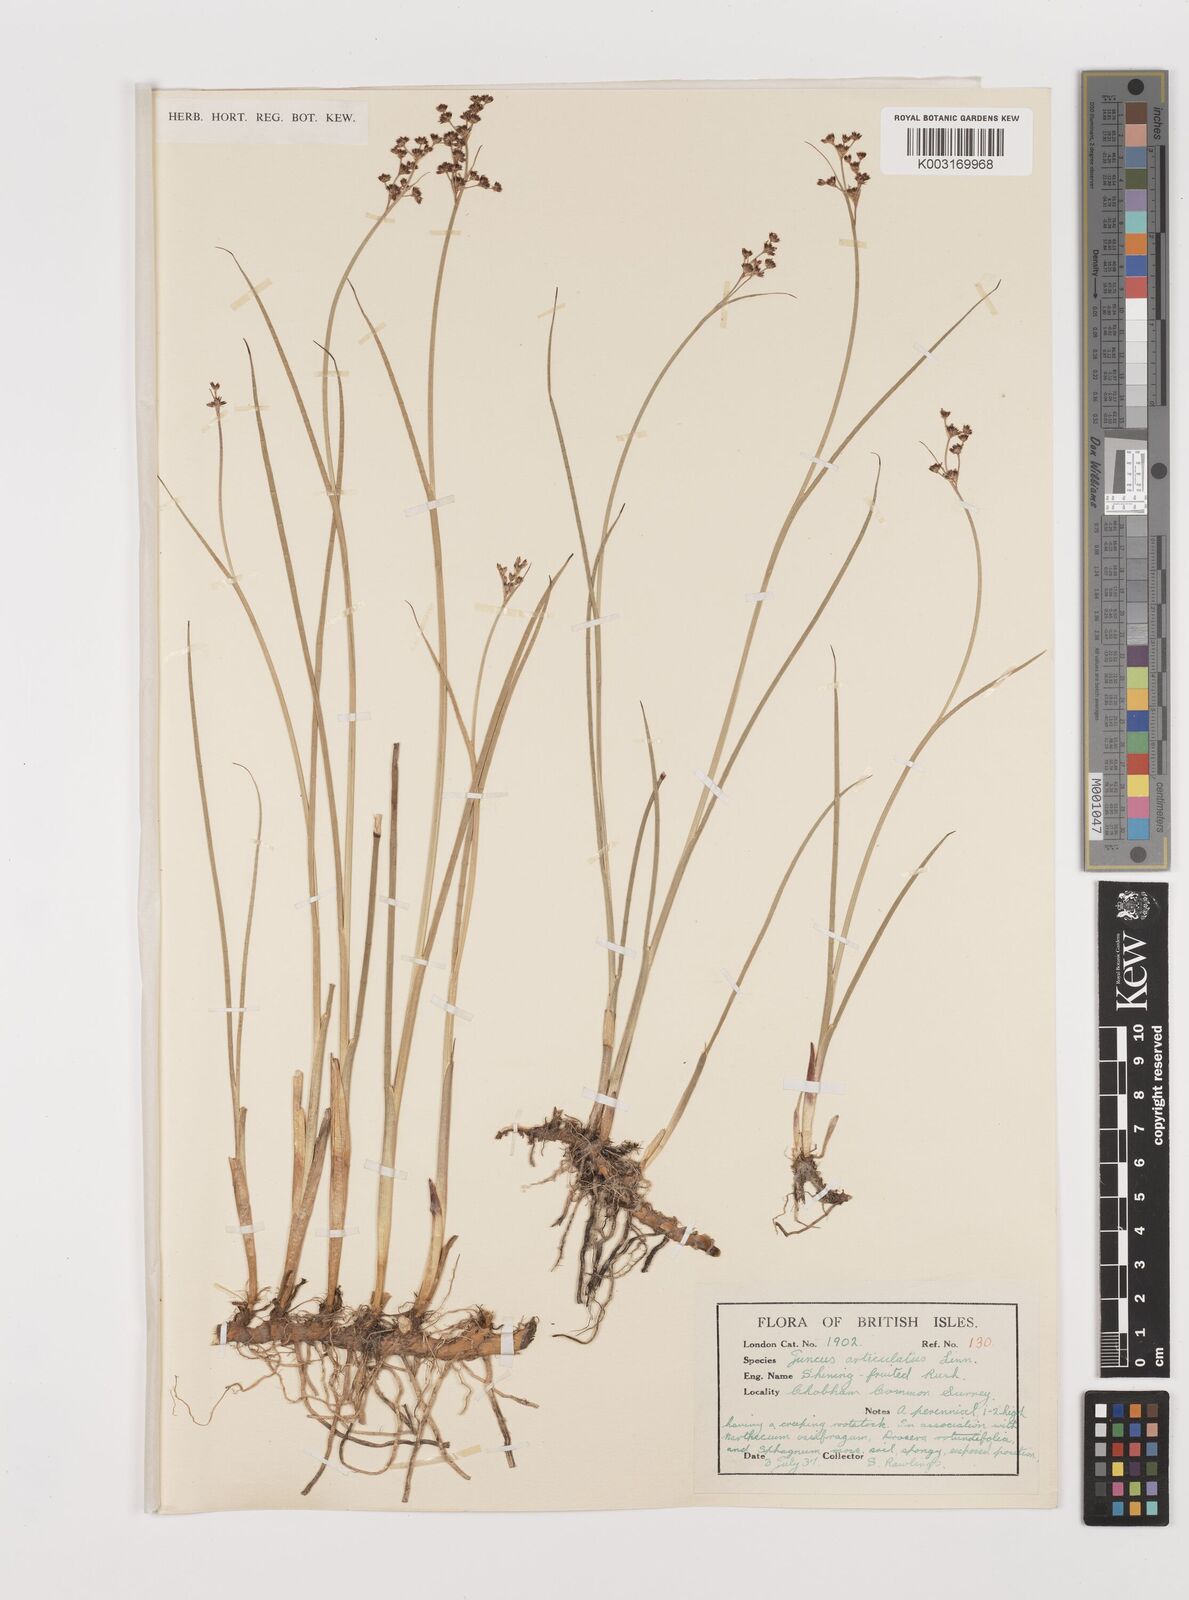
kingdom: Plantae
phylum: Tracheophyta
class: Liliopsida
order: Poales
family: Juncaceae
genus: Juncus
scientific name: Juncus articulatus
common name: Jointed rush
